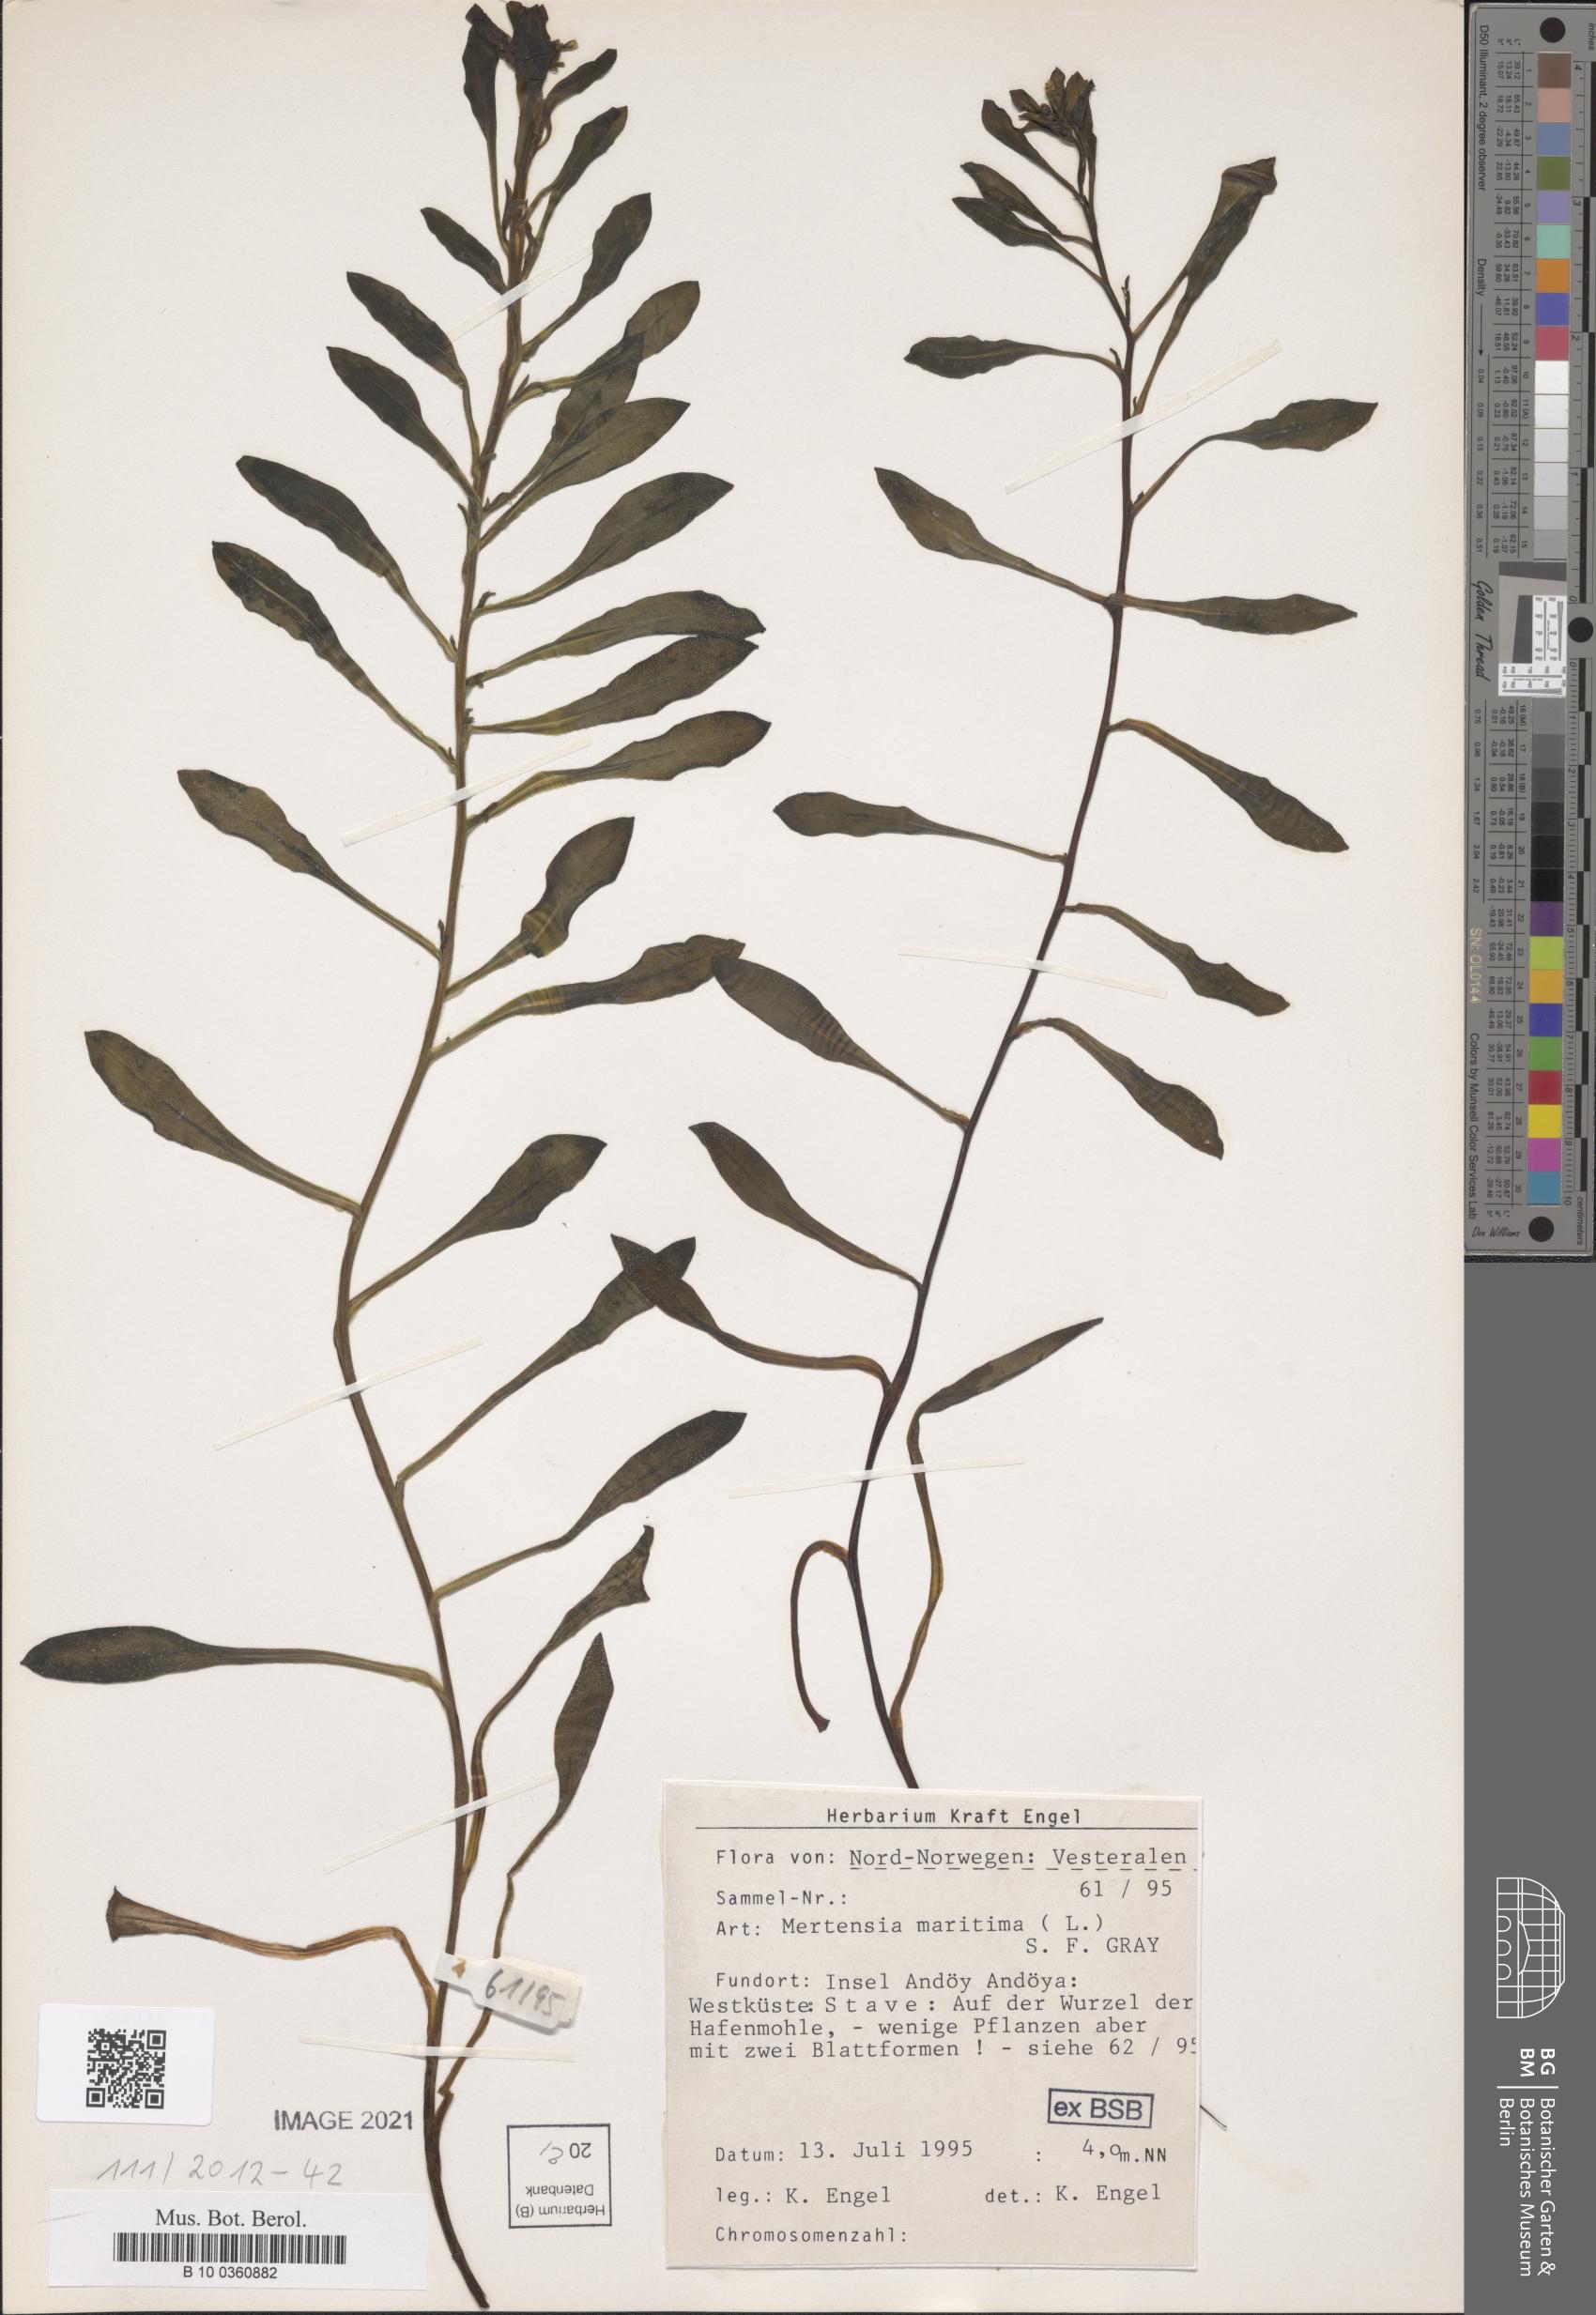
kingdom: Plantae
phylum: Tracheophyta
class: Magnoliopsida
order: Boraginales
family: Boraginaceae
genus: Mertensia
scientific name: Mertensia maritima
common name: Oysterplant
